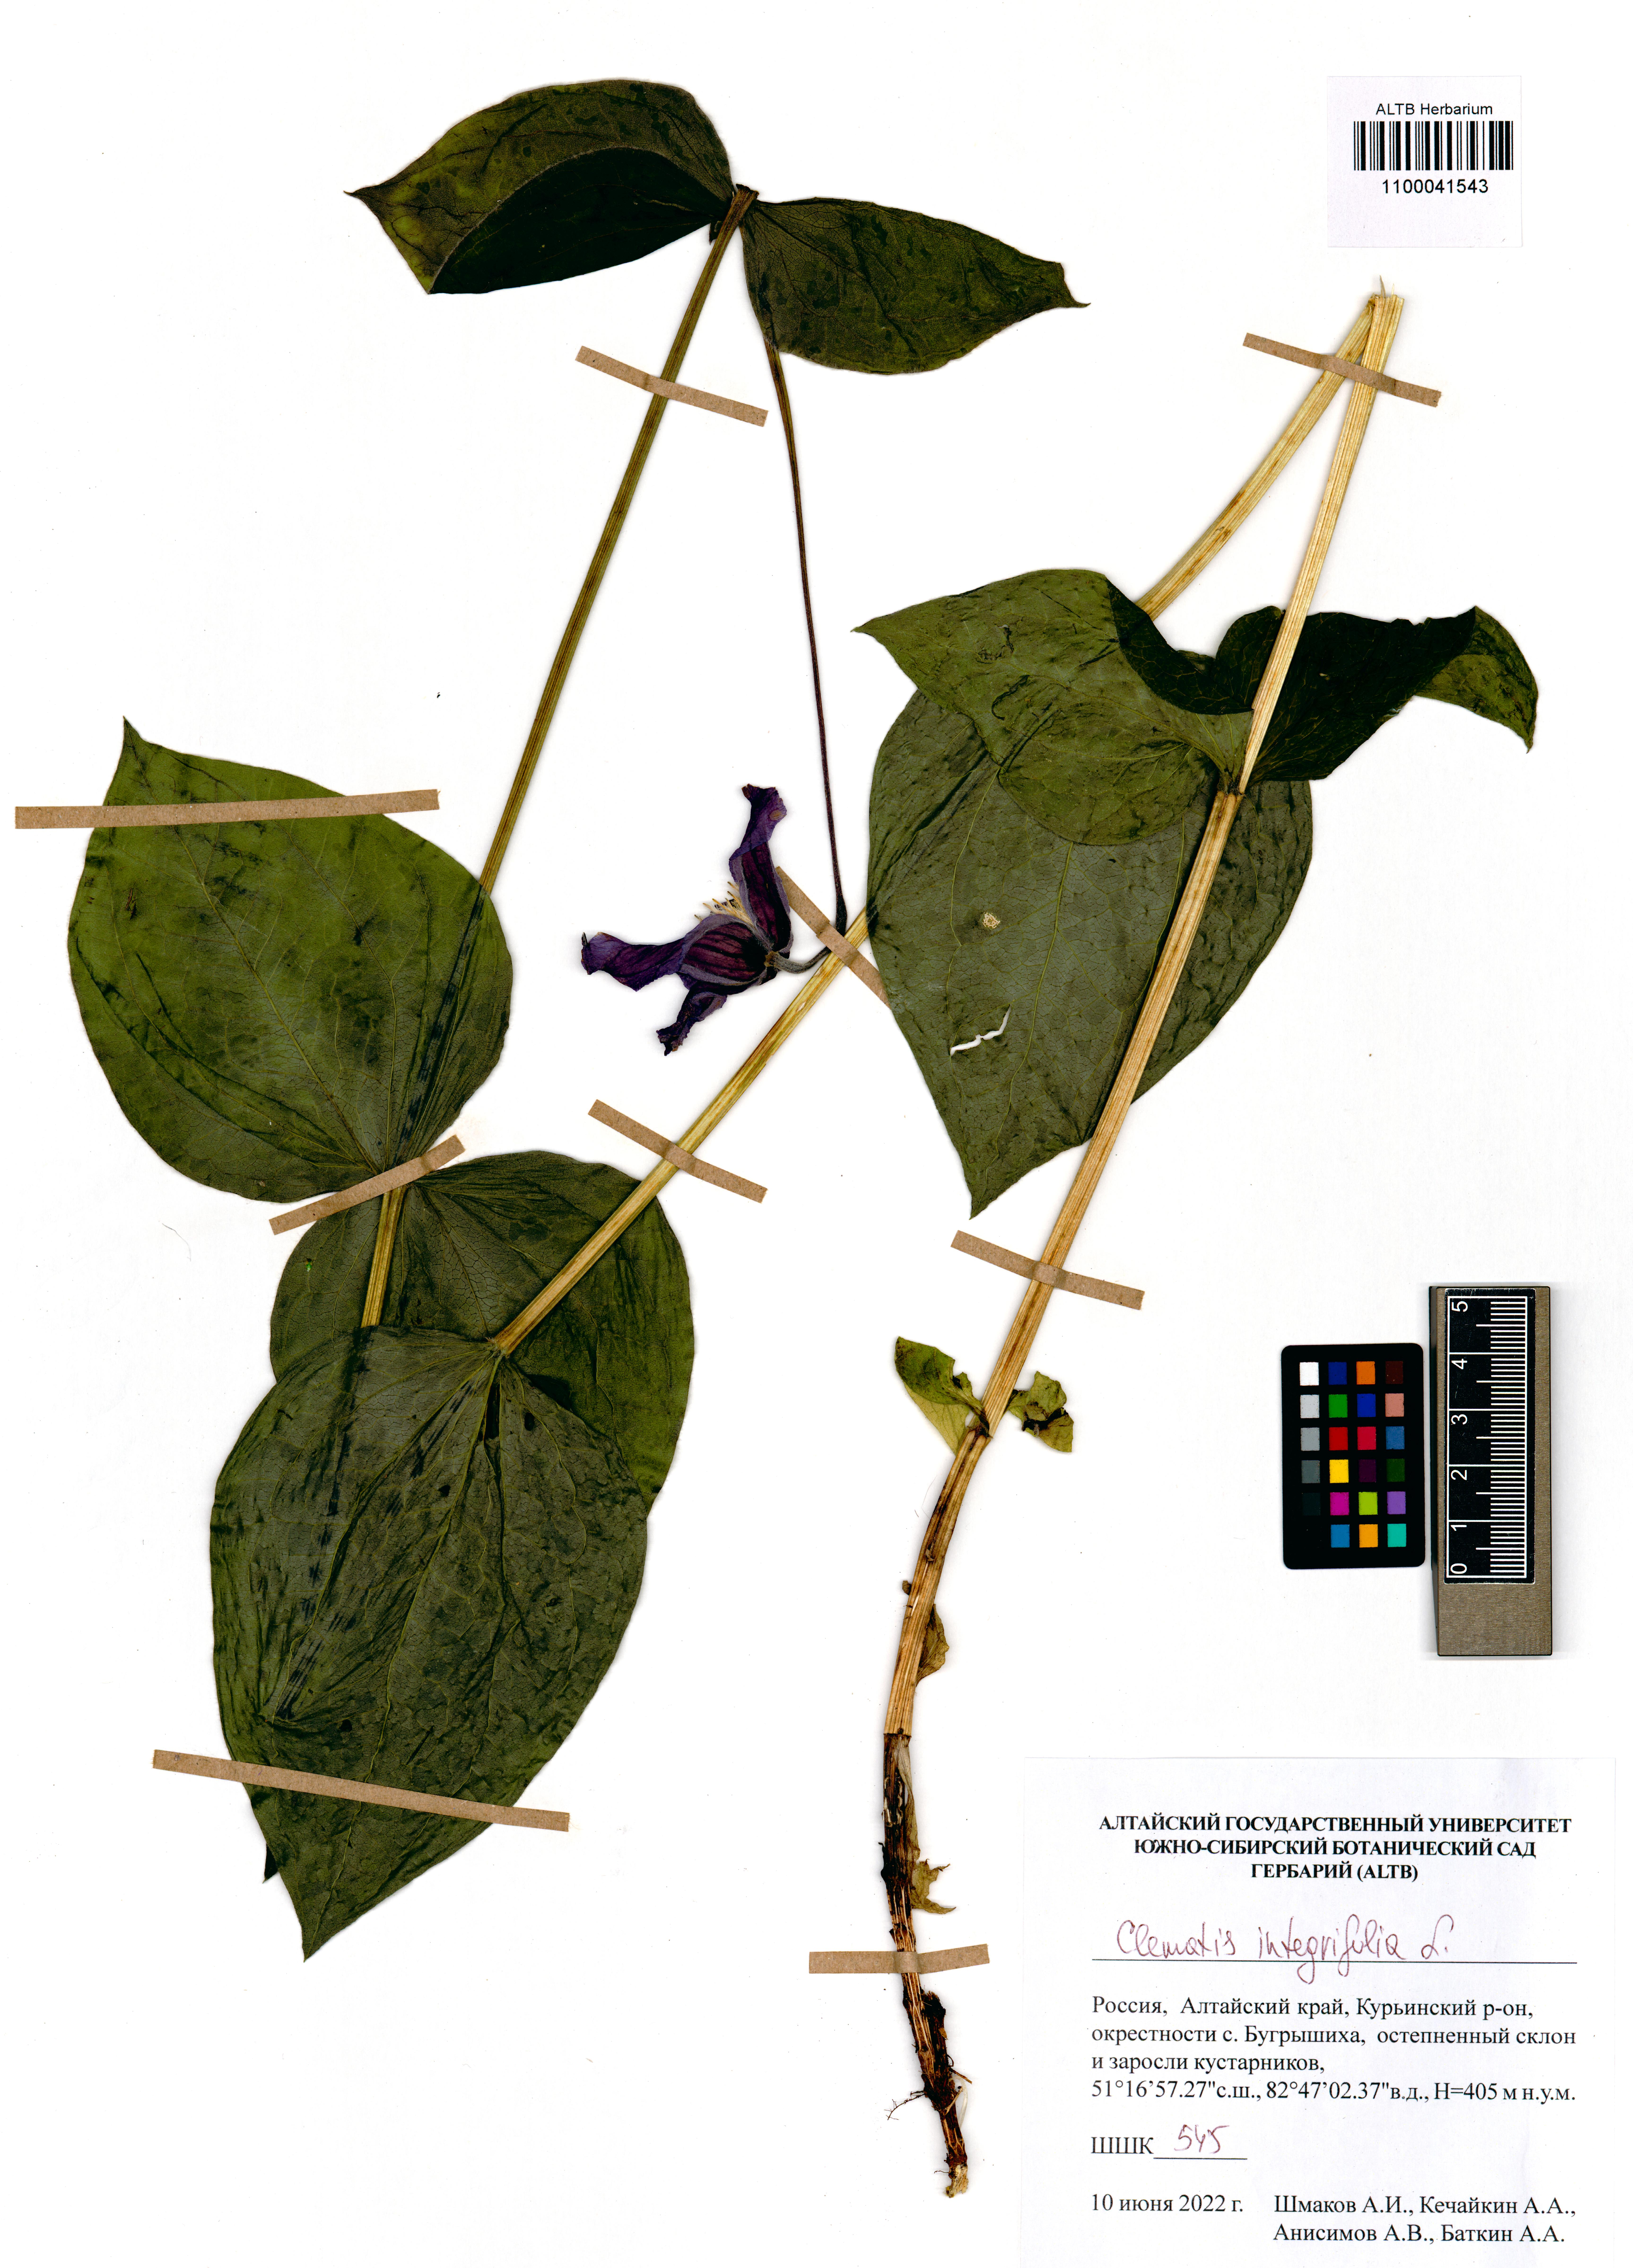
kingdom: Plantae
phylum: Tracheophyta
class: Magnoliopsida
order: Ranunculales
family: Ranunculaceae
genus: Clematis
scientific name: Clematis integrifolia
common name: Solitary clematis
